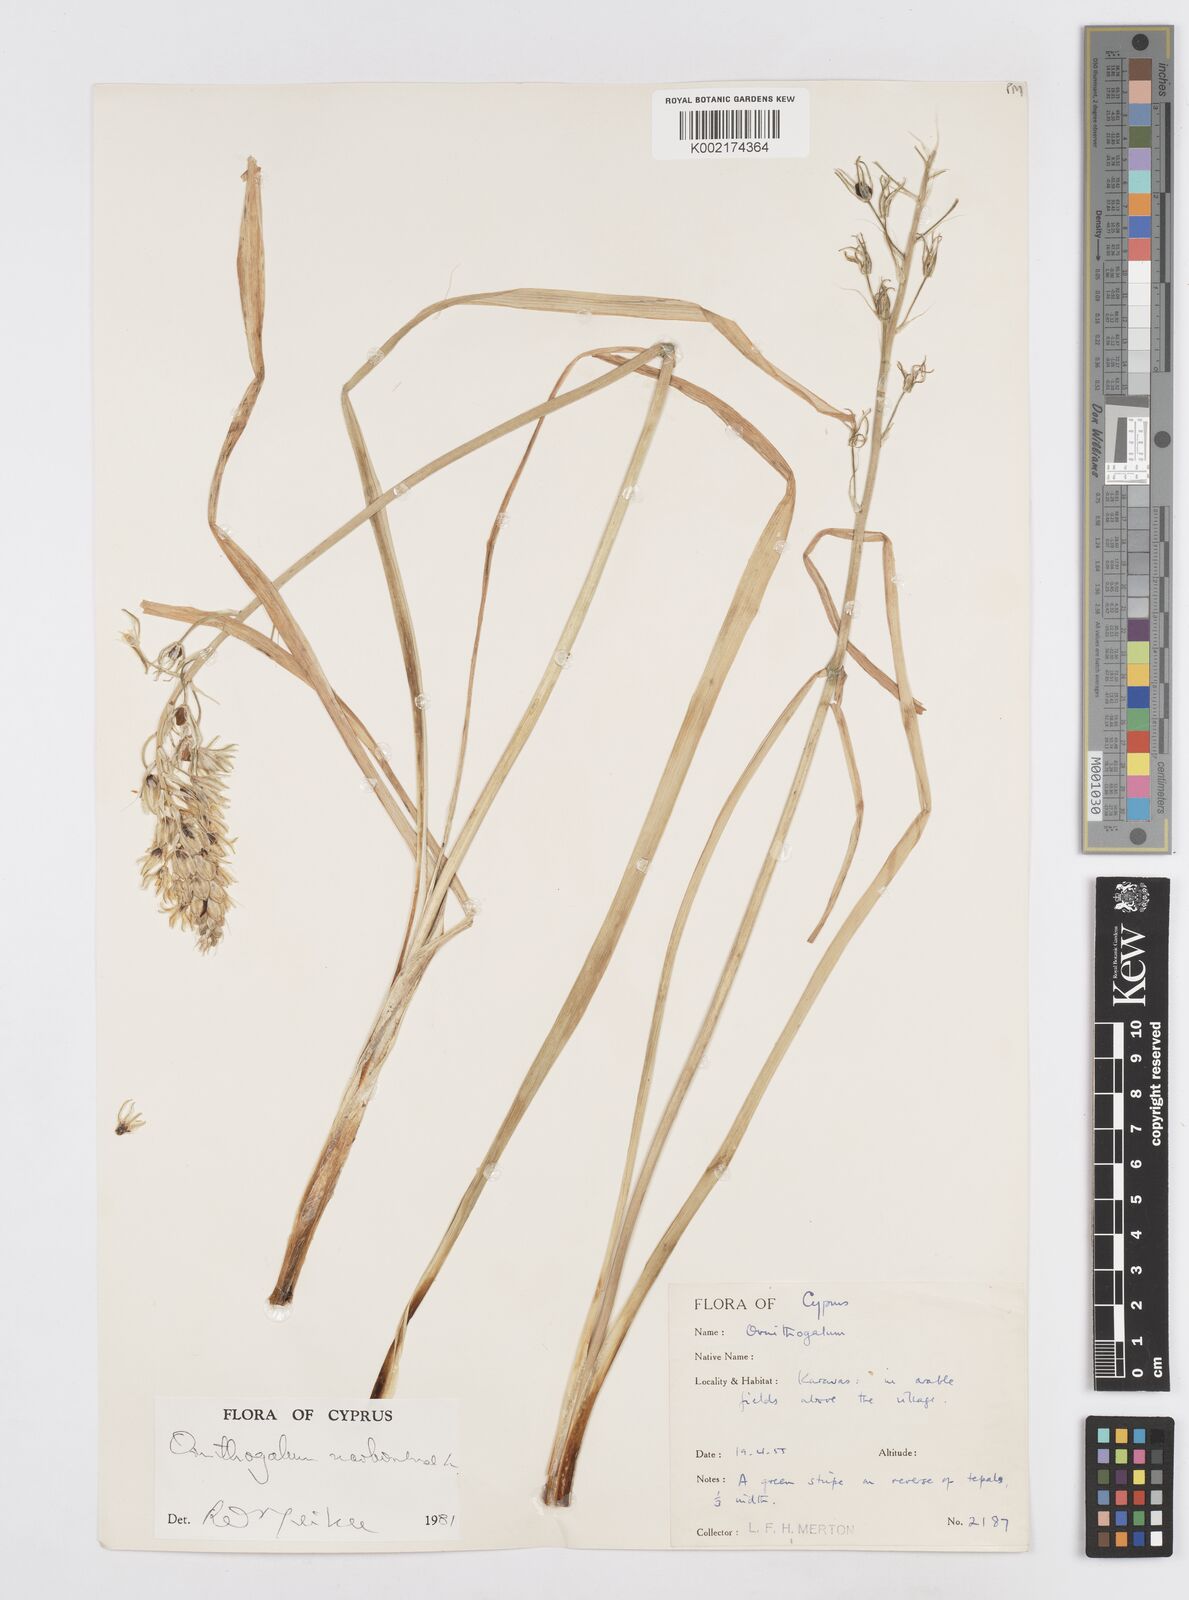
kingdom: Plantae
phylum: Tracheophyta
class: Liliopsida
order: Asparagales
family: Asparagaceae
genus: Ornithogalum
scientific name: Ornithogalum narbonense
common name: Bath-asparagus
